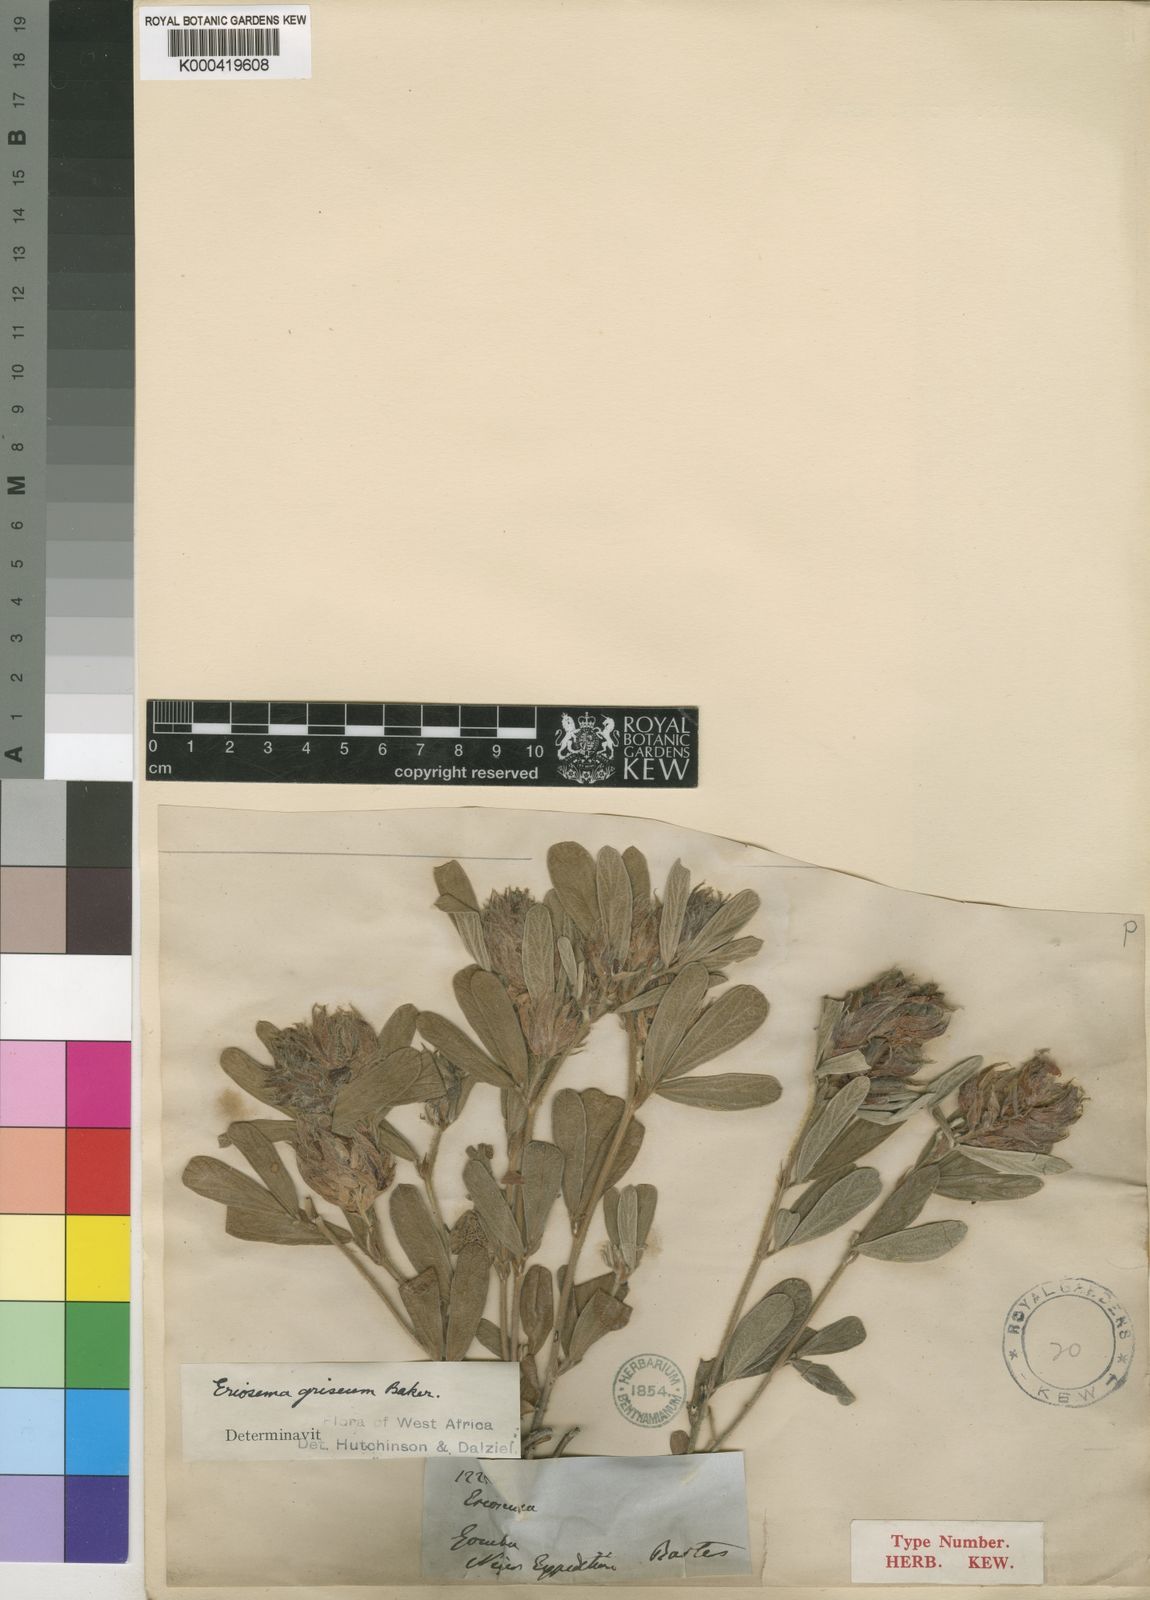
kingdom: Plantae
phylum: Tracheophyta
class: Magnoliopsida
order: Fabales
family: Fabaceae
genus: Eriosema
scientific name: Eriosema griseum
